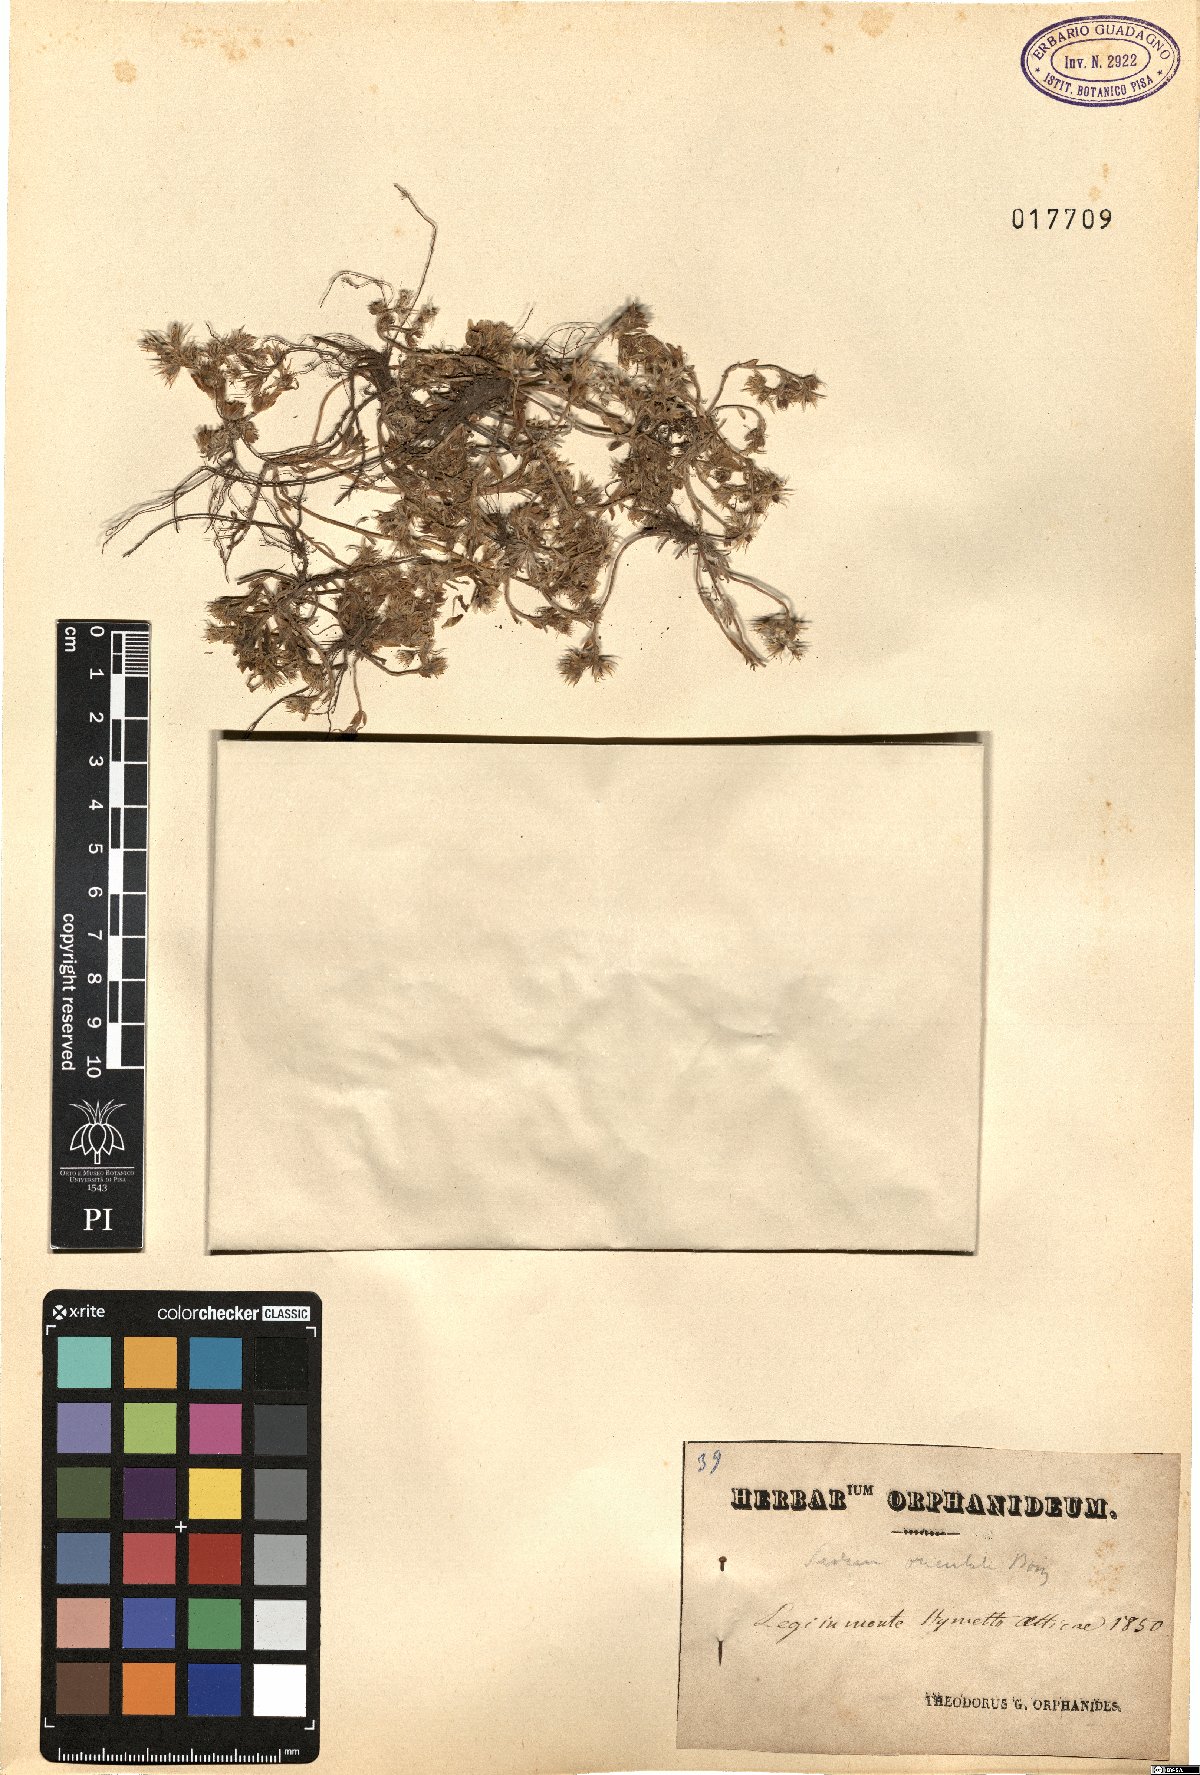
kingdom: Plantae
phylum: Tracheophyta
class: Magnoliopsida
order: Saxifragales
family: Crassulaceae
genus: Sedum
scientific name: Sedum hispanicum
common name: Spanish stonecrop
